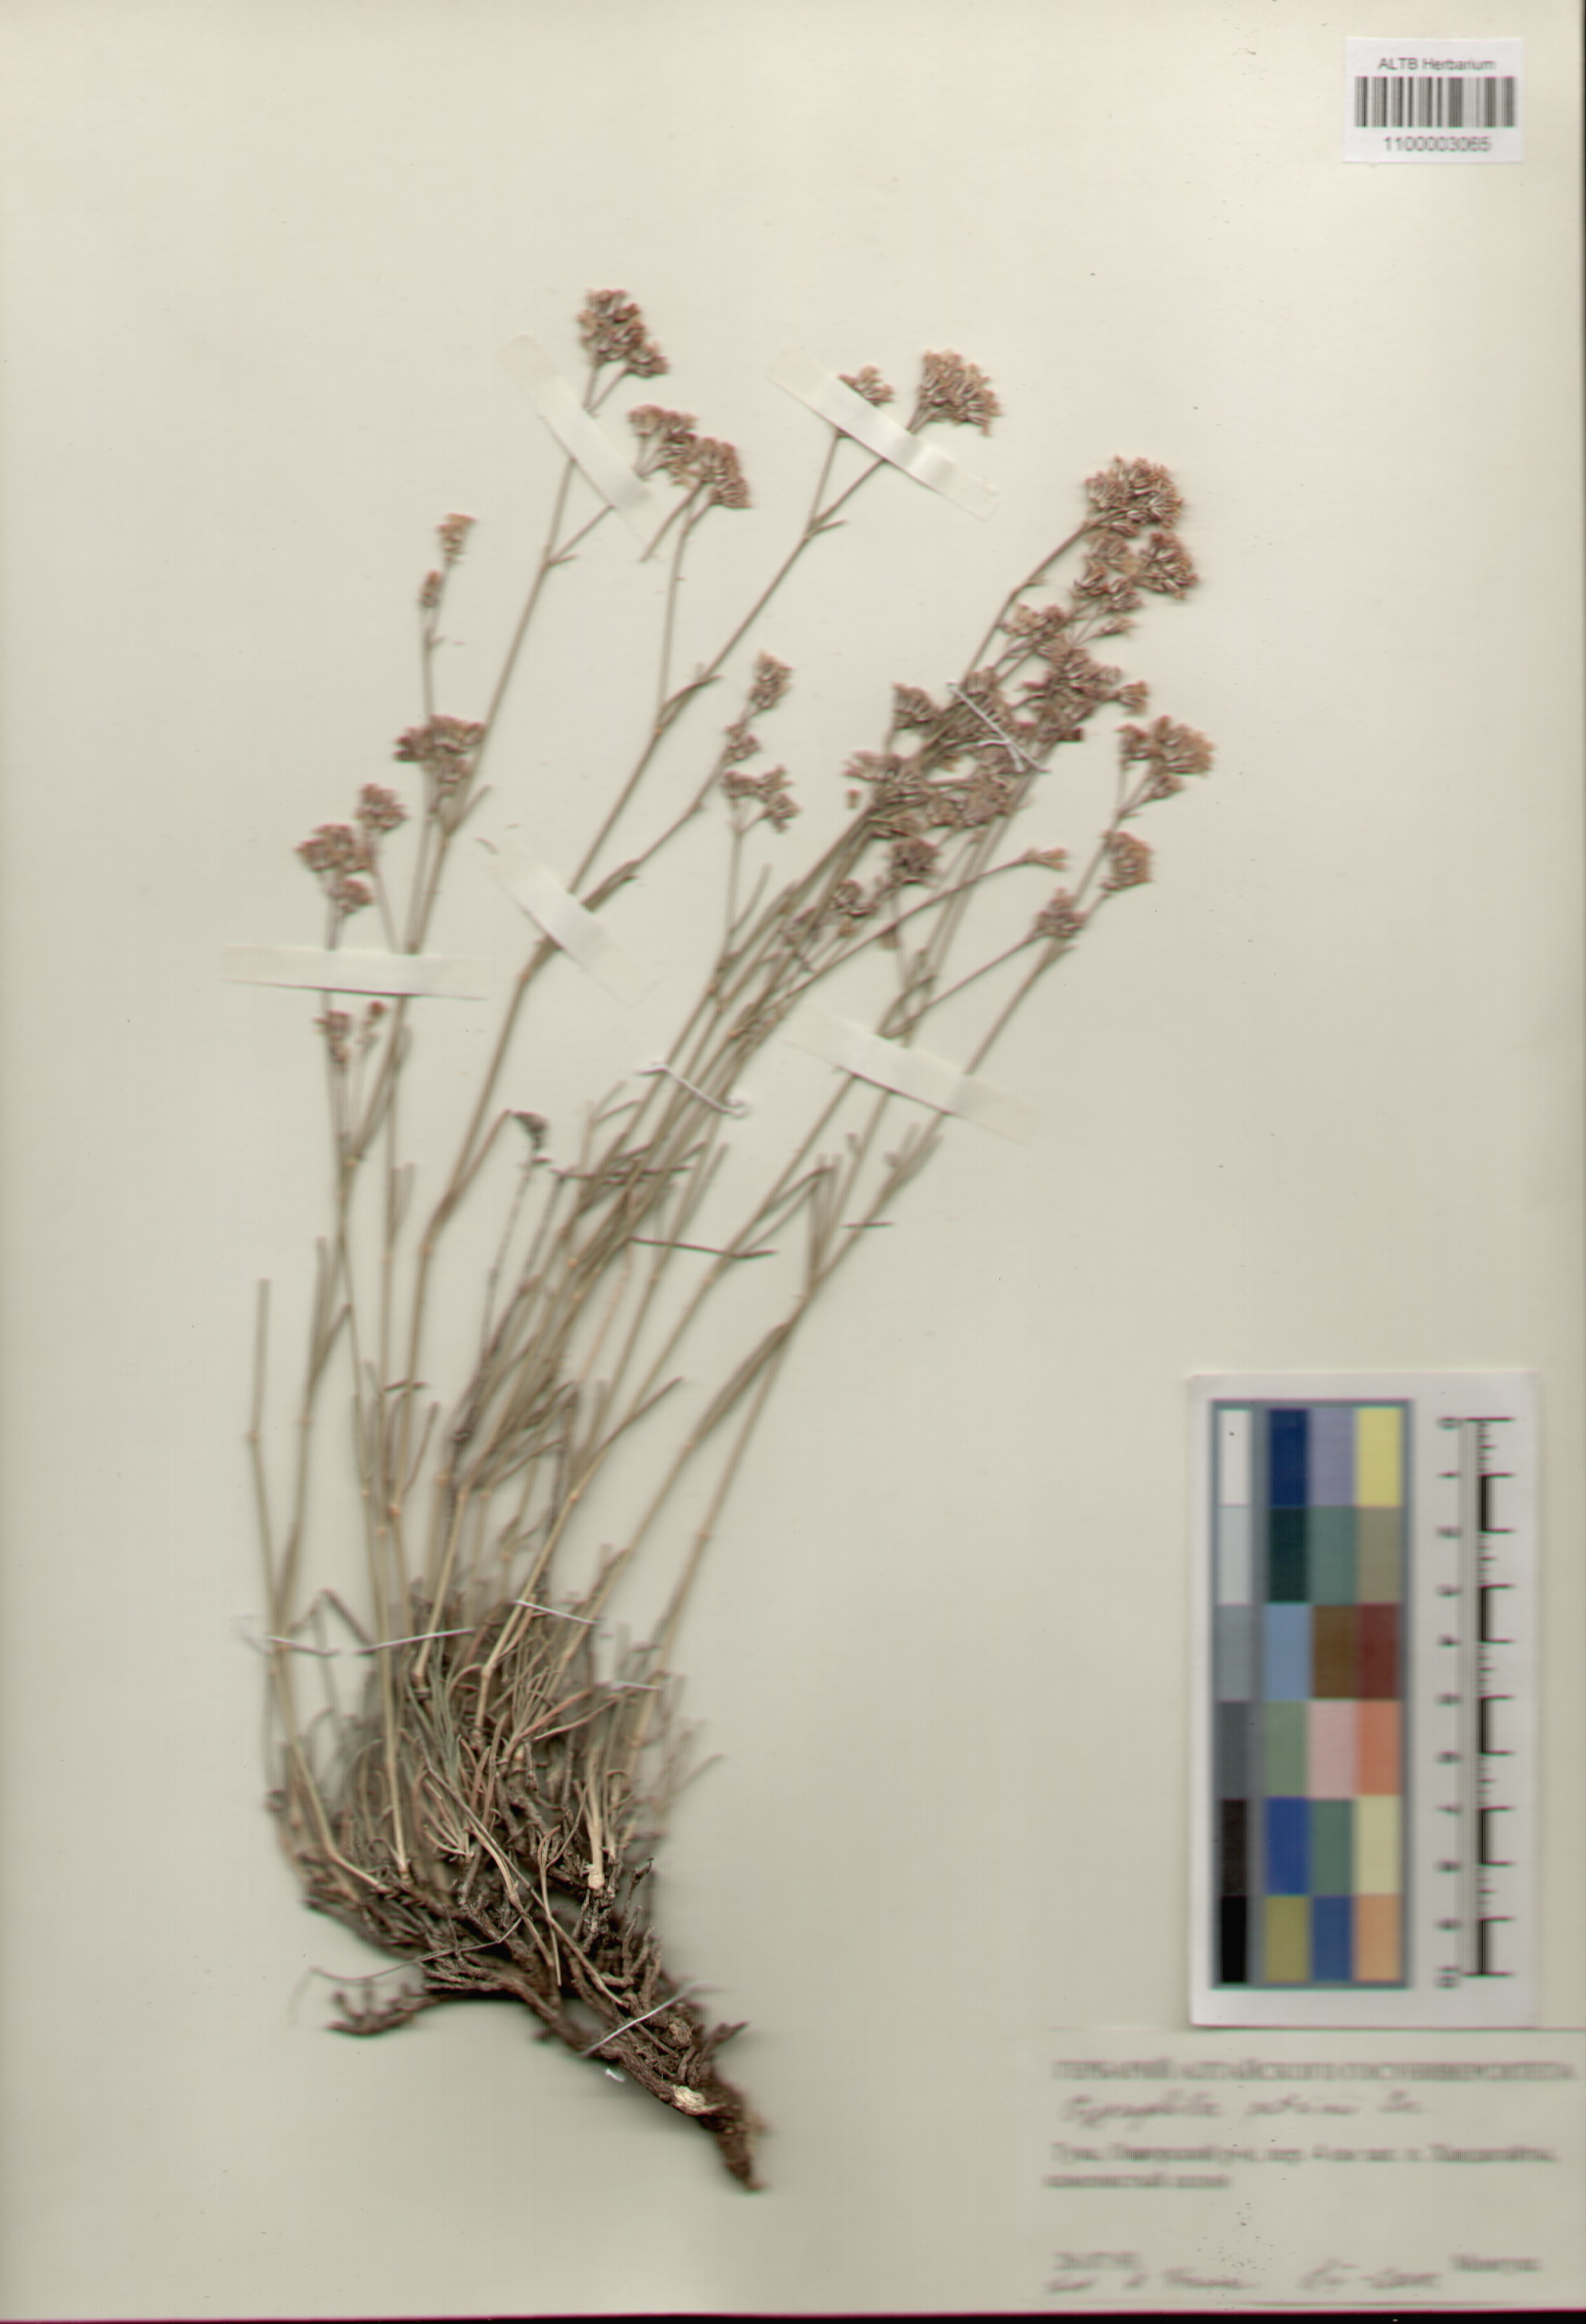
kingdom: Plantae
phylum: Tracheophyta
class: Magnoliopsida
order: Caryophyllales
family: Caryophyllaceae
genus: Gypsophila
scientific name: Gypsophila patrinii
